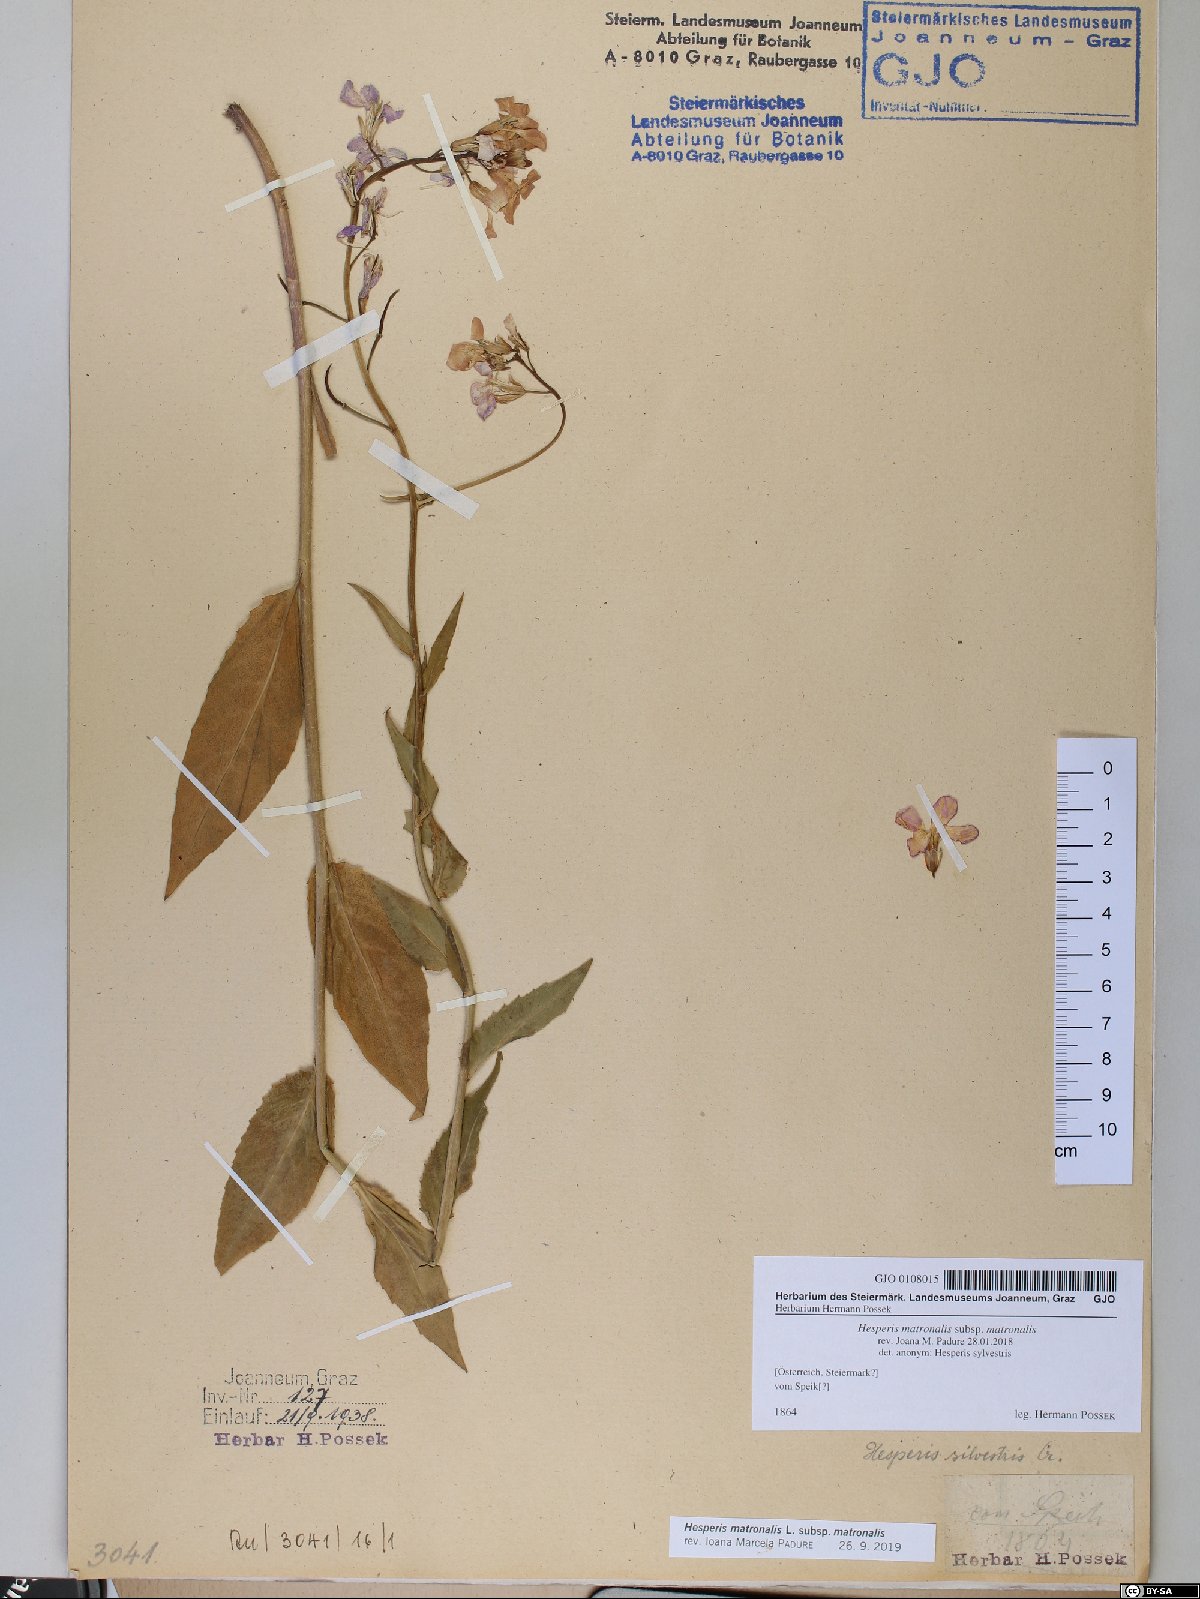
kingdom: Plantae
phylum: Tracheophyta
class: Magnoliopsida
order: Brassicales
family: Brassicaceae
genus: Hesperis
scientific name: Hesperis matronalis
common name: Dame's-violet
